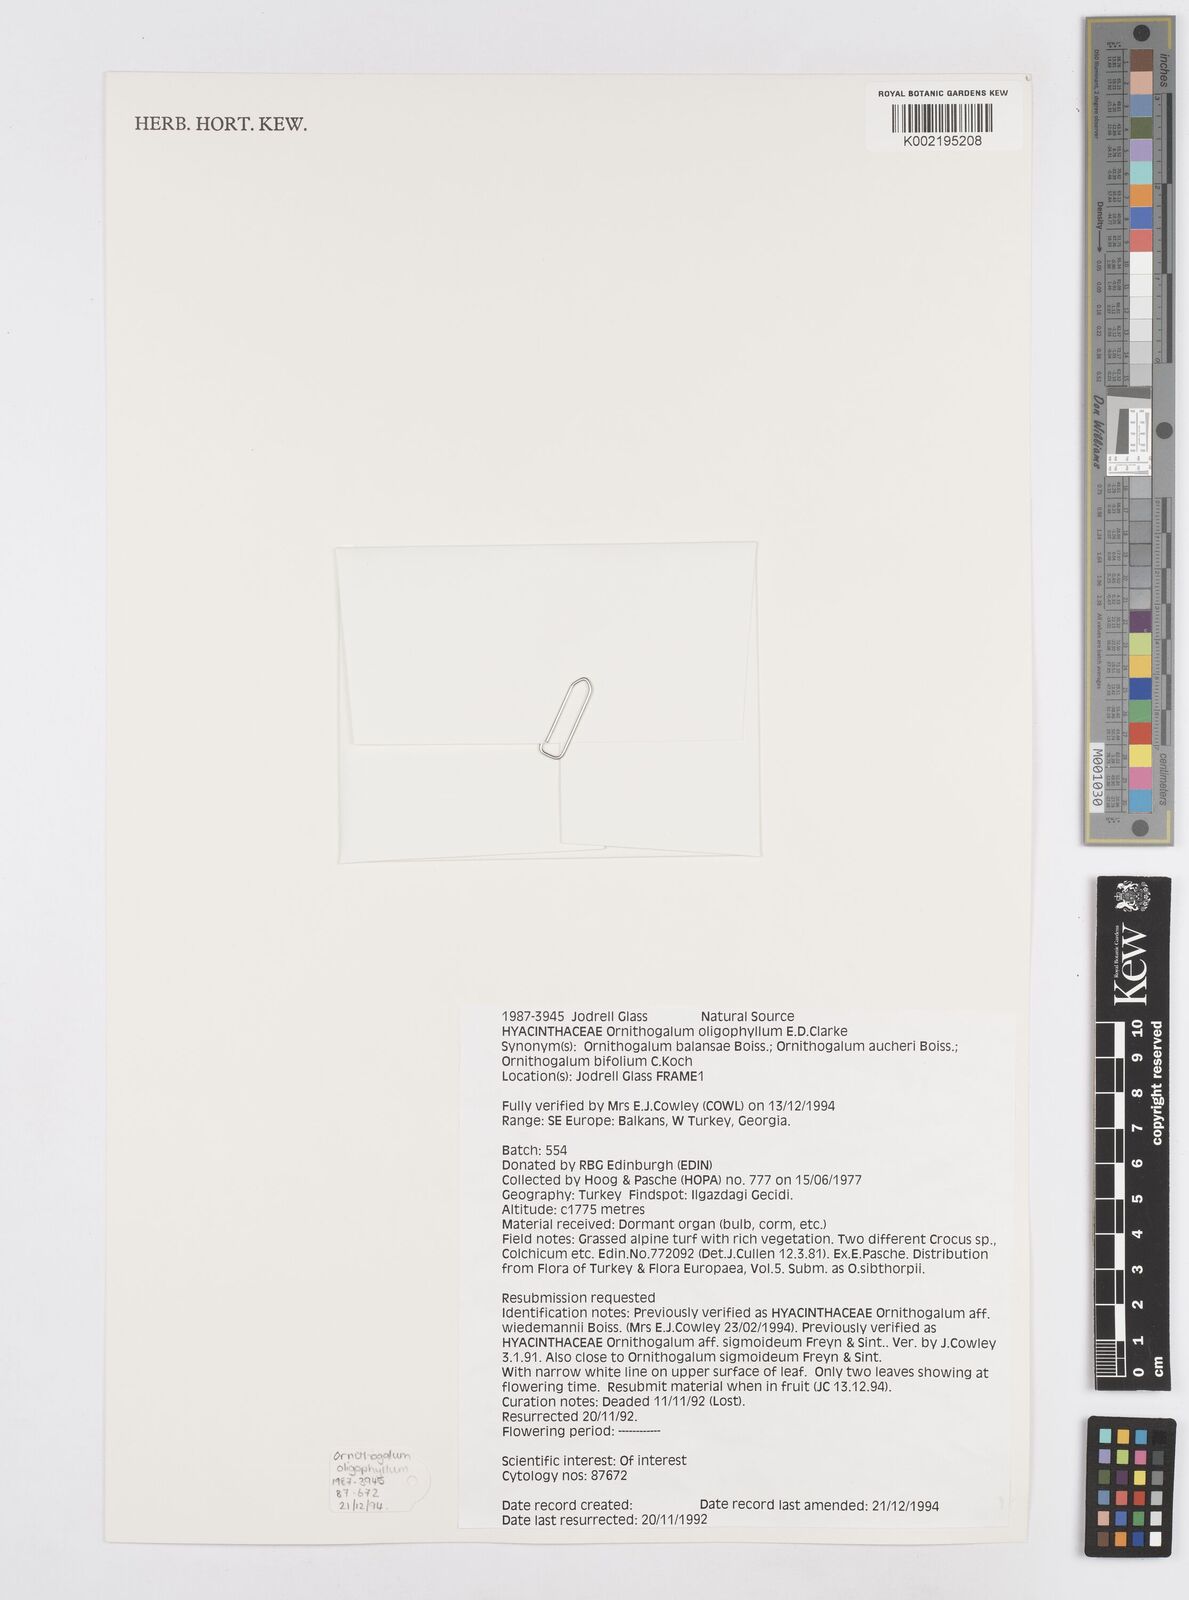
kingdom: Plantae
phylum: Tracheophyta
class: Liliopsida
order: Asparagales
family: Asparagaceae
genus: Ornithogalum
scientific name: Ornithogalum oligophyllum
